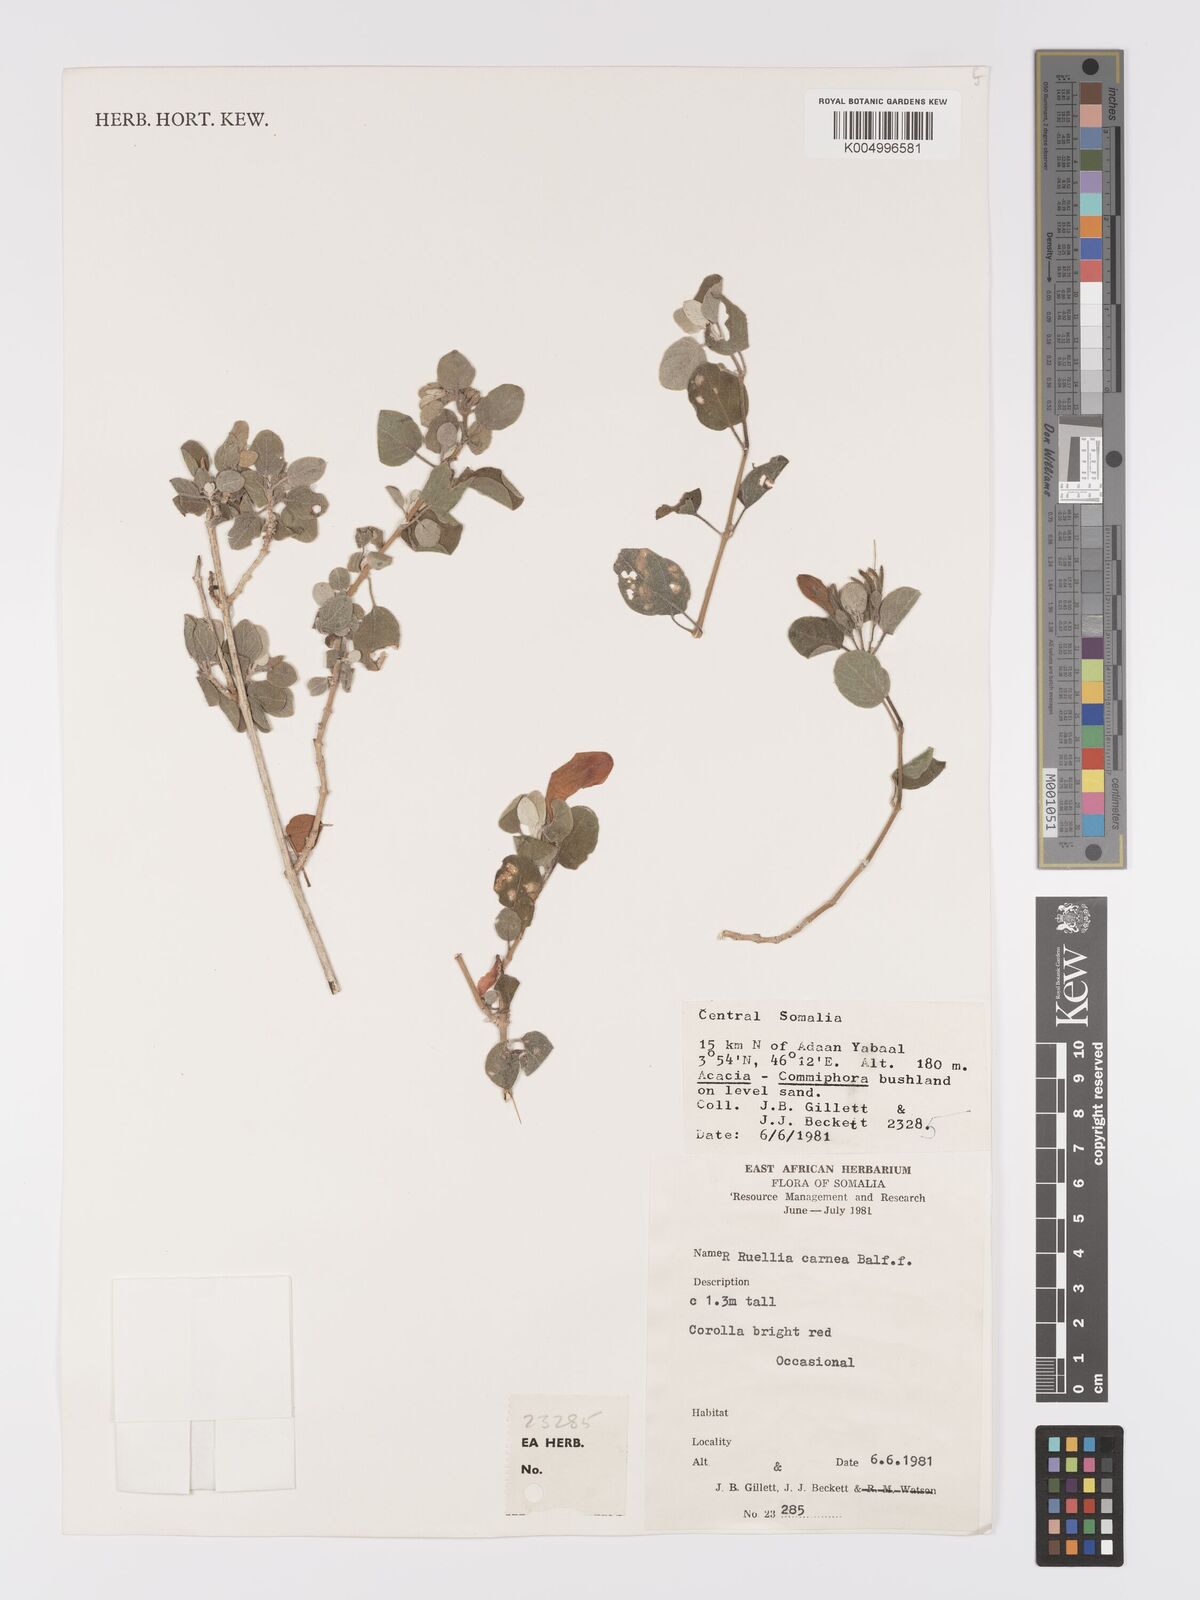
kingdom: Plantae
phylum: Tracheophyta
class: Magnoliopsida
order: Lamiales
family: Acanthaceae
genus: Ruellia
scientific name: Ruellia carnea
